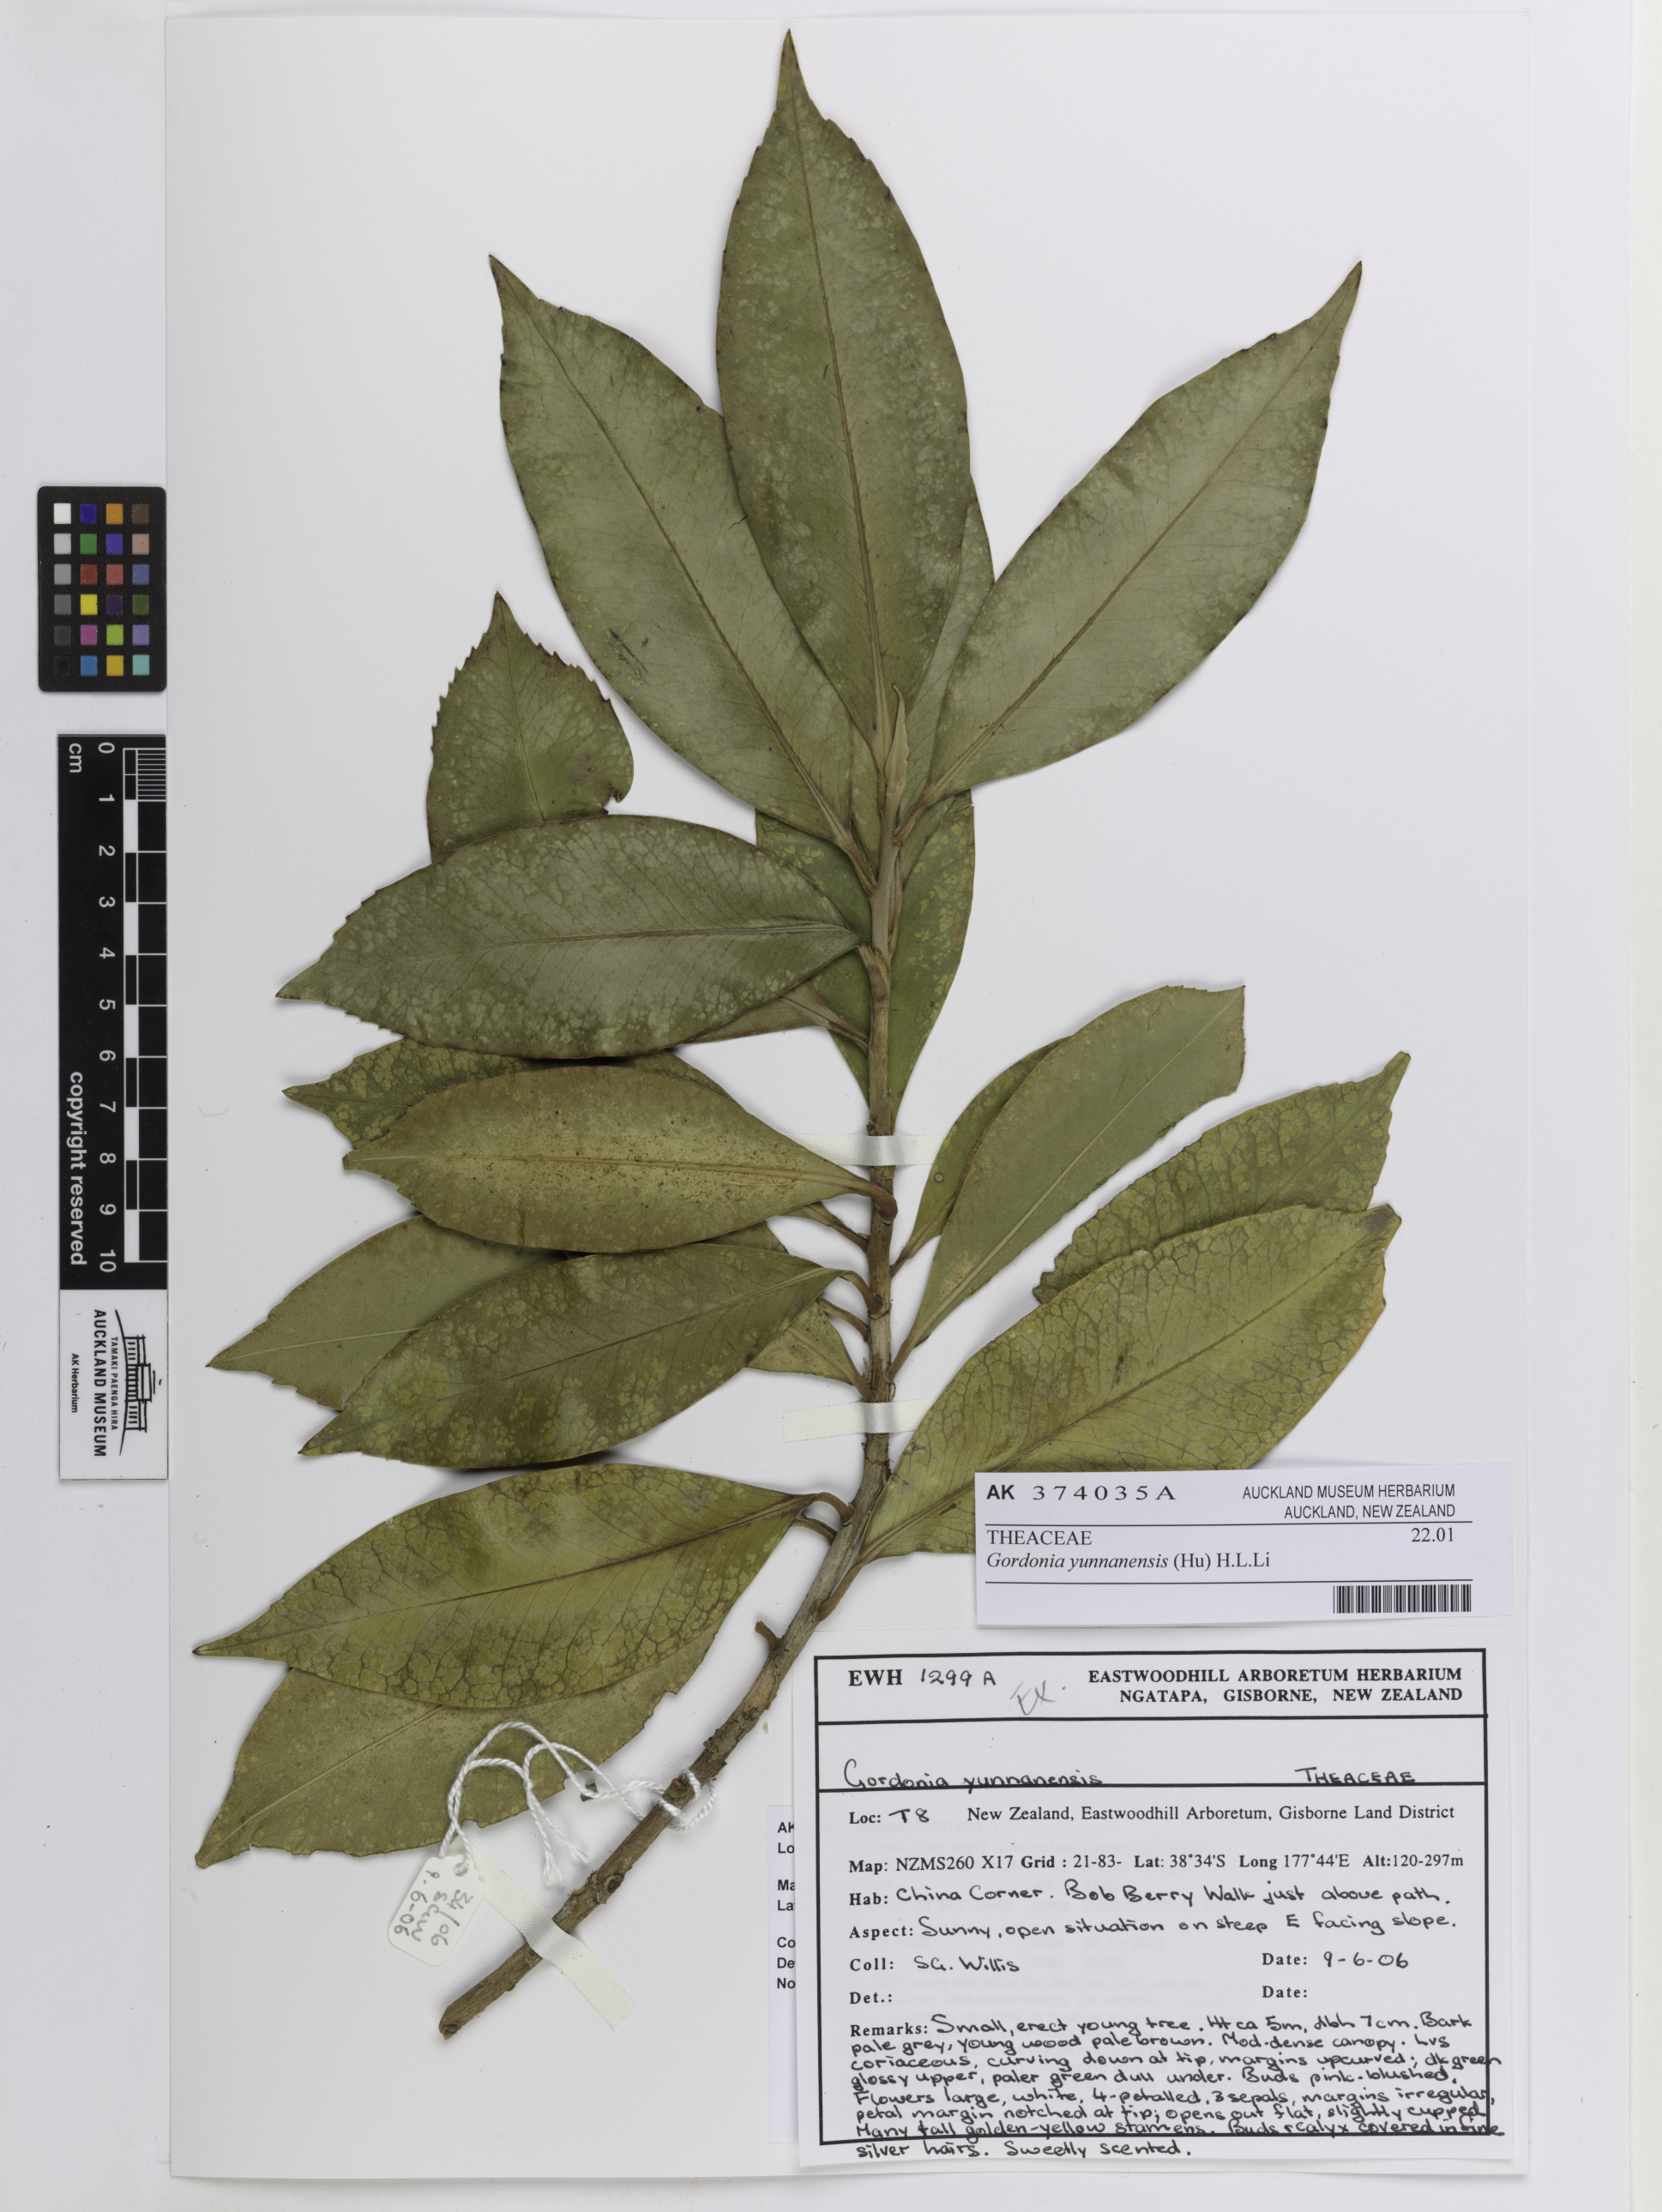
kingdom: Plantae
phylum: Tracheophyta
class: Magnoliopsida
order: Ericales
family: Theaceae
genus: Camellia
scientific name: Camellia taliensis
